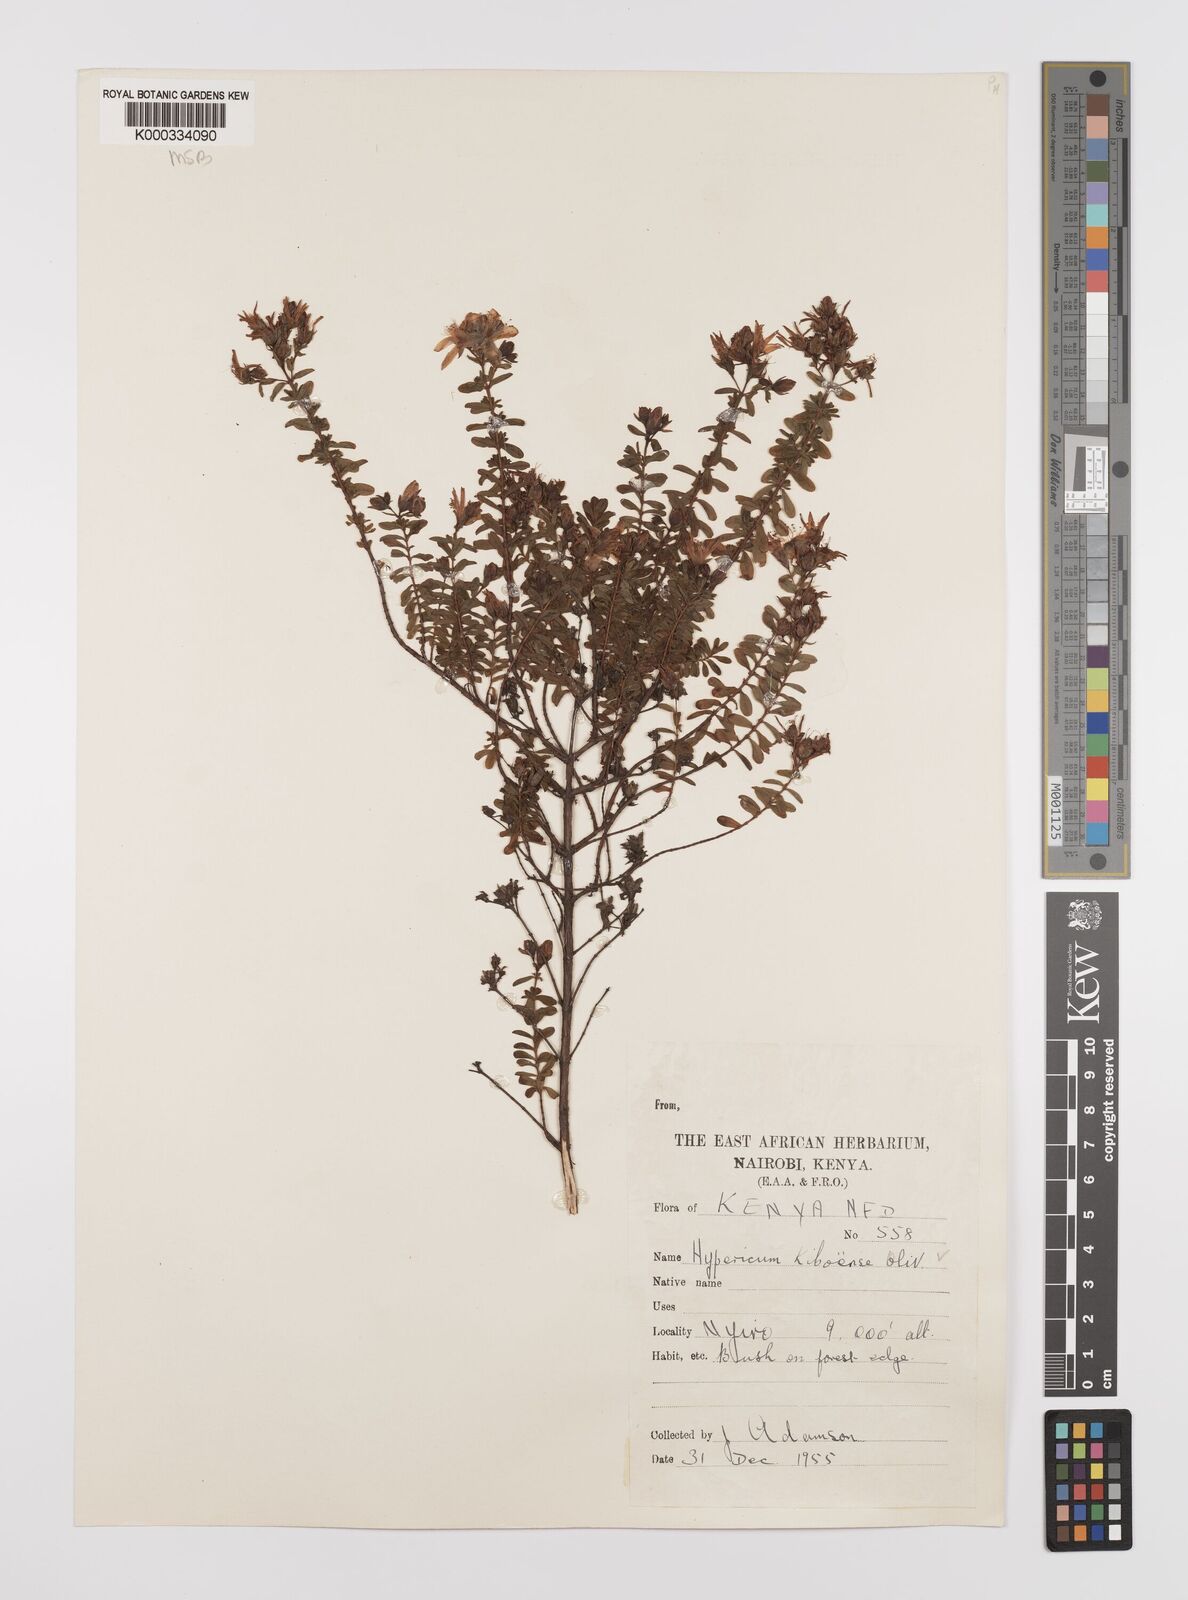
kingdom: Plantae
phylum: Tracheophyta
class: Magnoliopsida
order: Malpighiales
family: Hypericaceae
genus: Hypericum
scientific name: Hypericum kiboense
